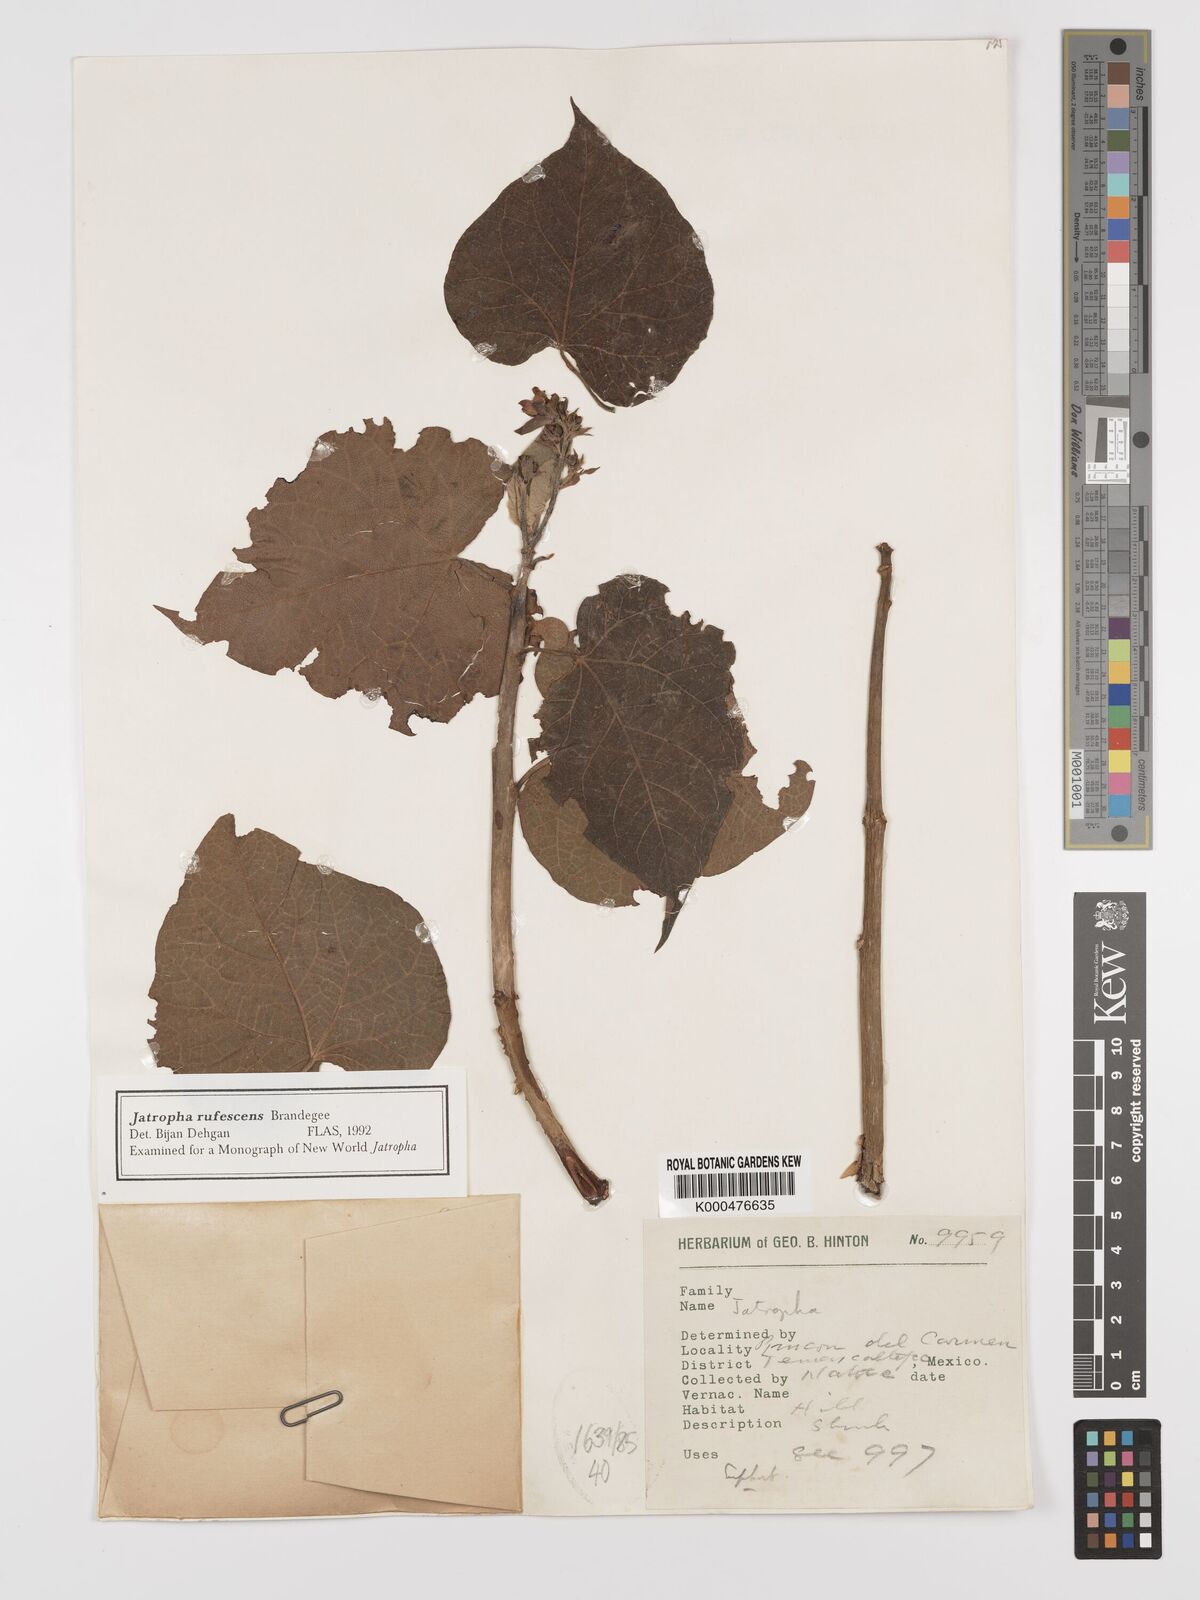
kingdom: Plantae
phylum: Tracheophyta
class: Magnoliopsida
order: Malpighiales
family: Euphorbiaceae
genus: Jatropha
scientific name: Jatropha rufescens
